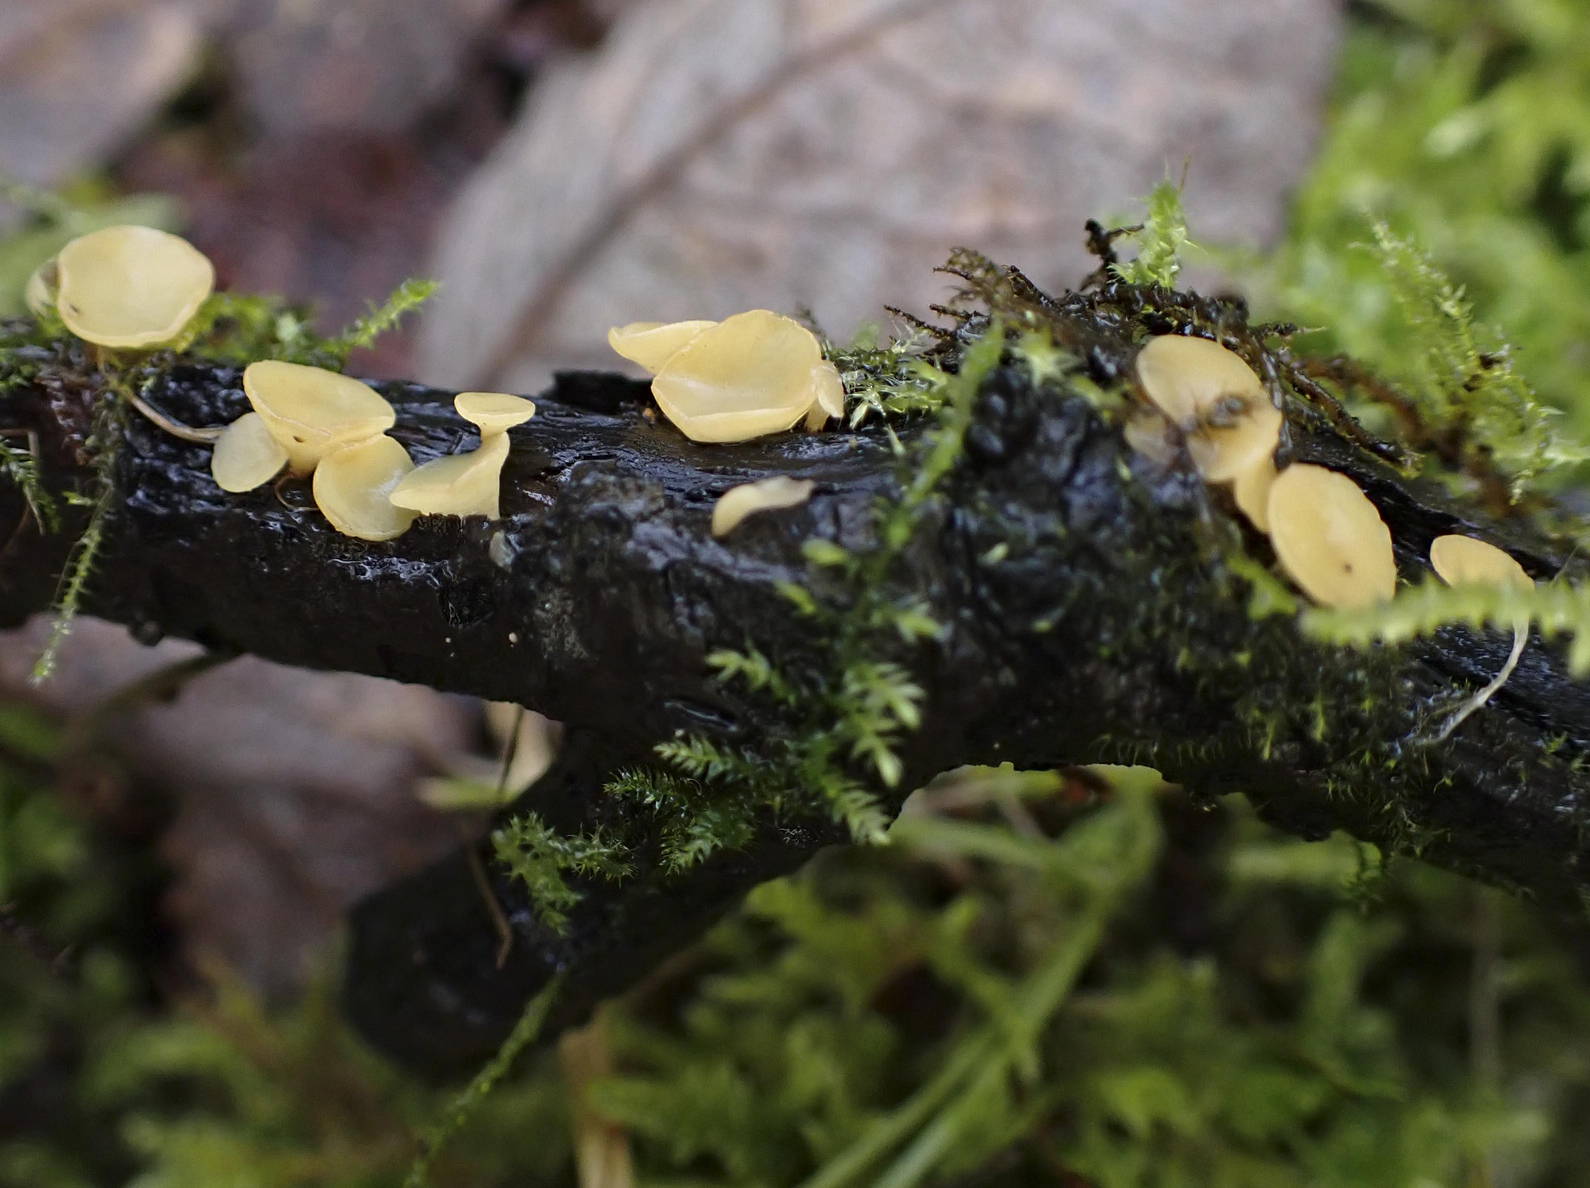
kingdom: Fungi
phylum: Ascomycota
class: Leotiomycetes
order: Helotiales
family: Helotiaceae
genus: Hymenoscyphus
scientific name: Hymenoscyphus calyculus
